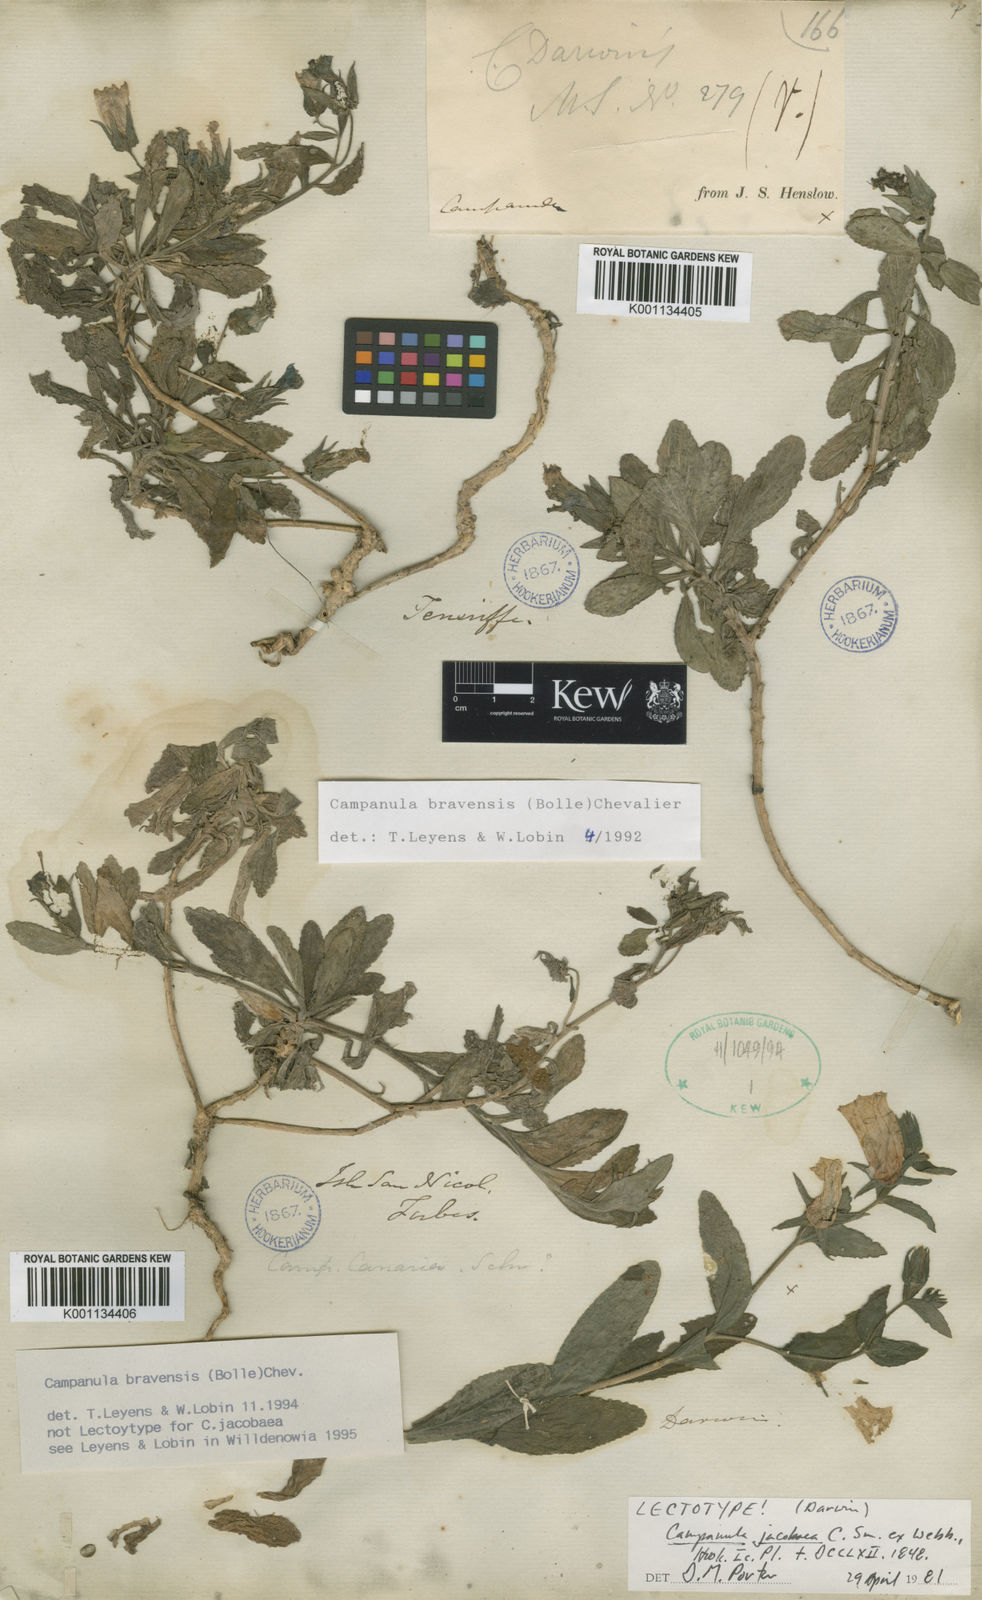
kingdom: Plantae
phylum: Tracheophyta
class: Magnoliopsida
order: Asterales
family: Campanulaceae
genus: Campanula
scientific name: Campanula
